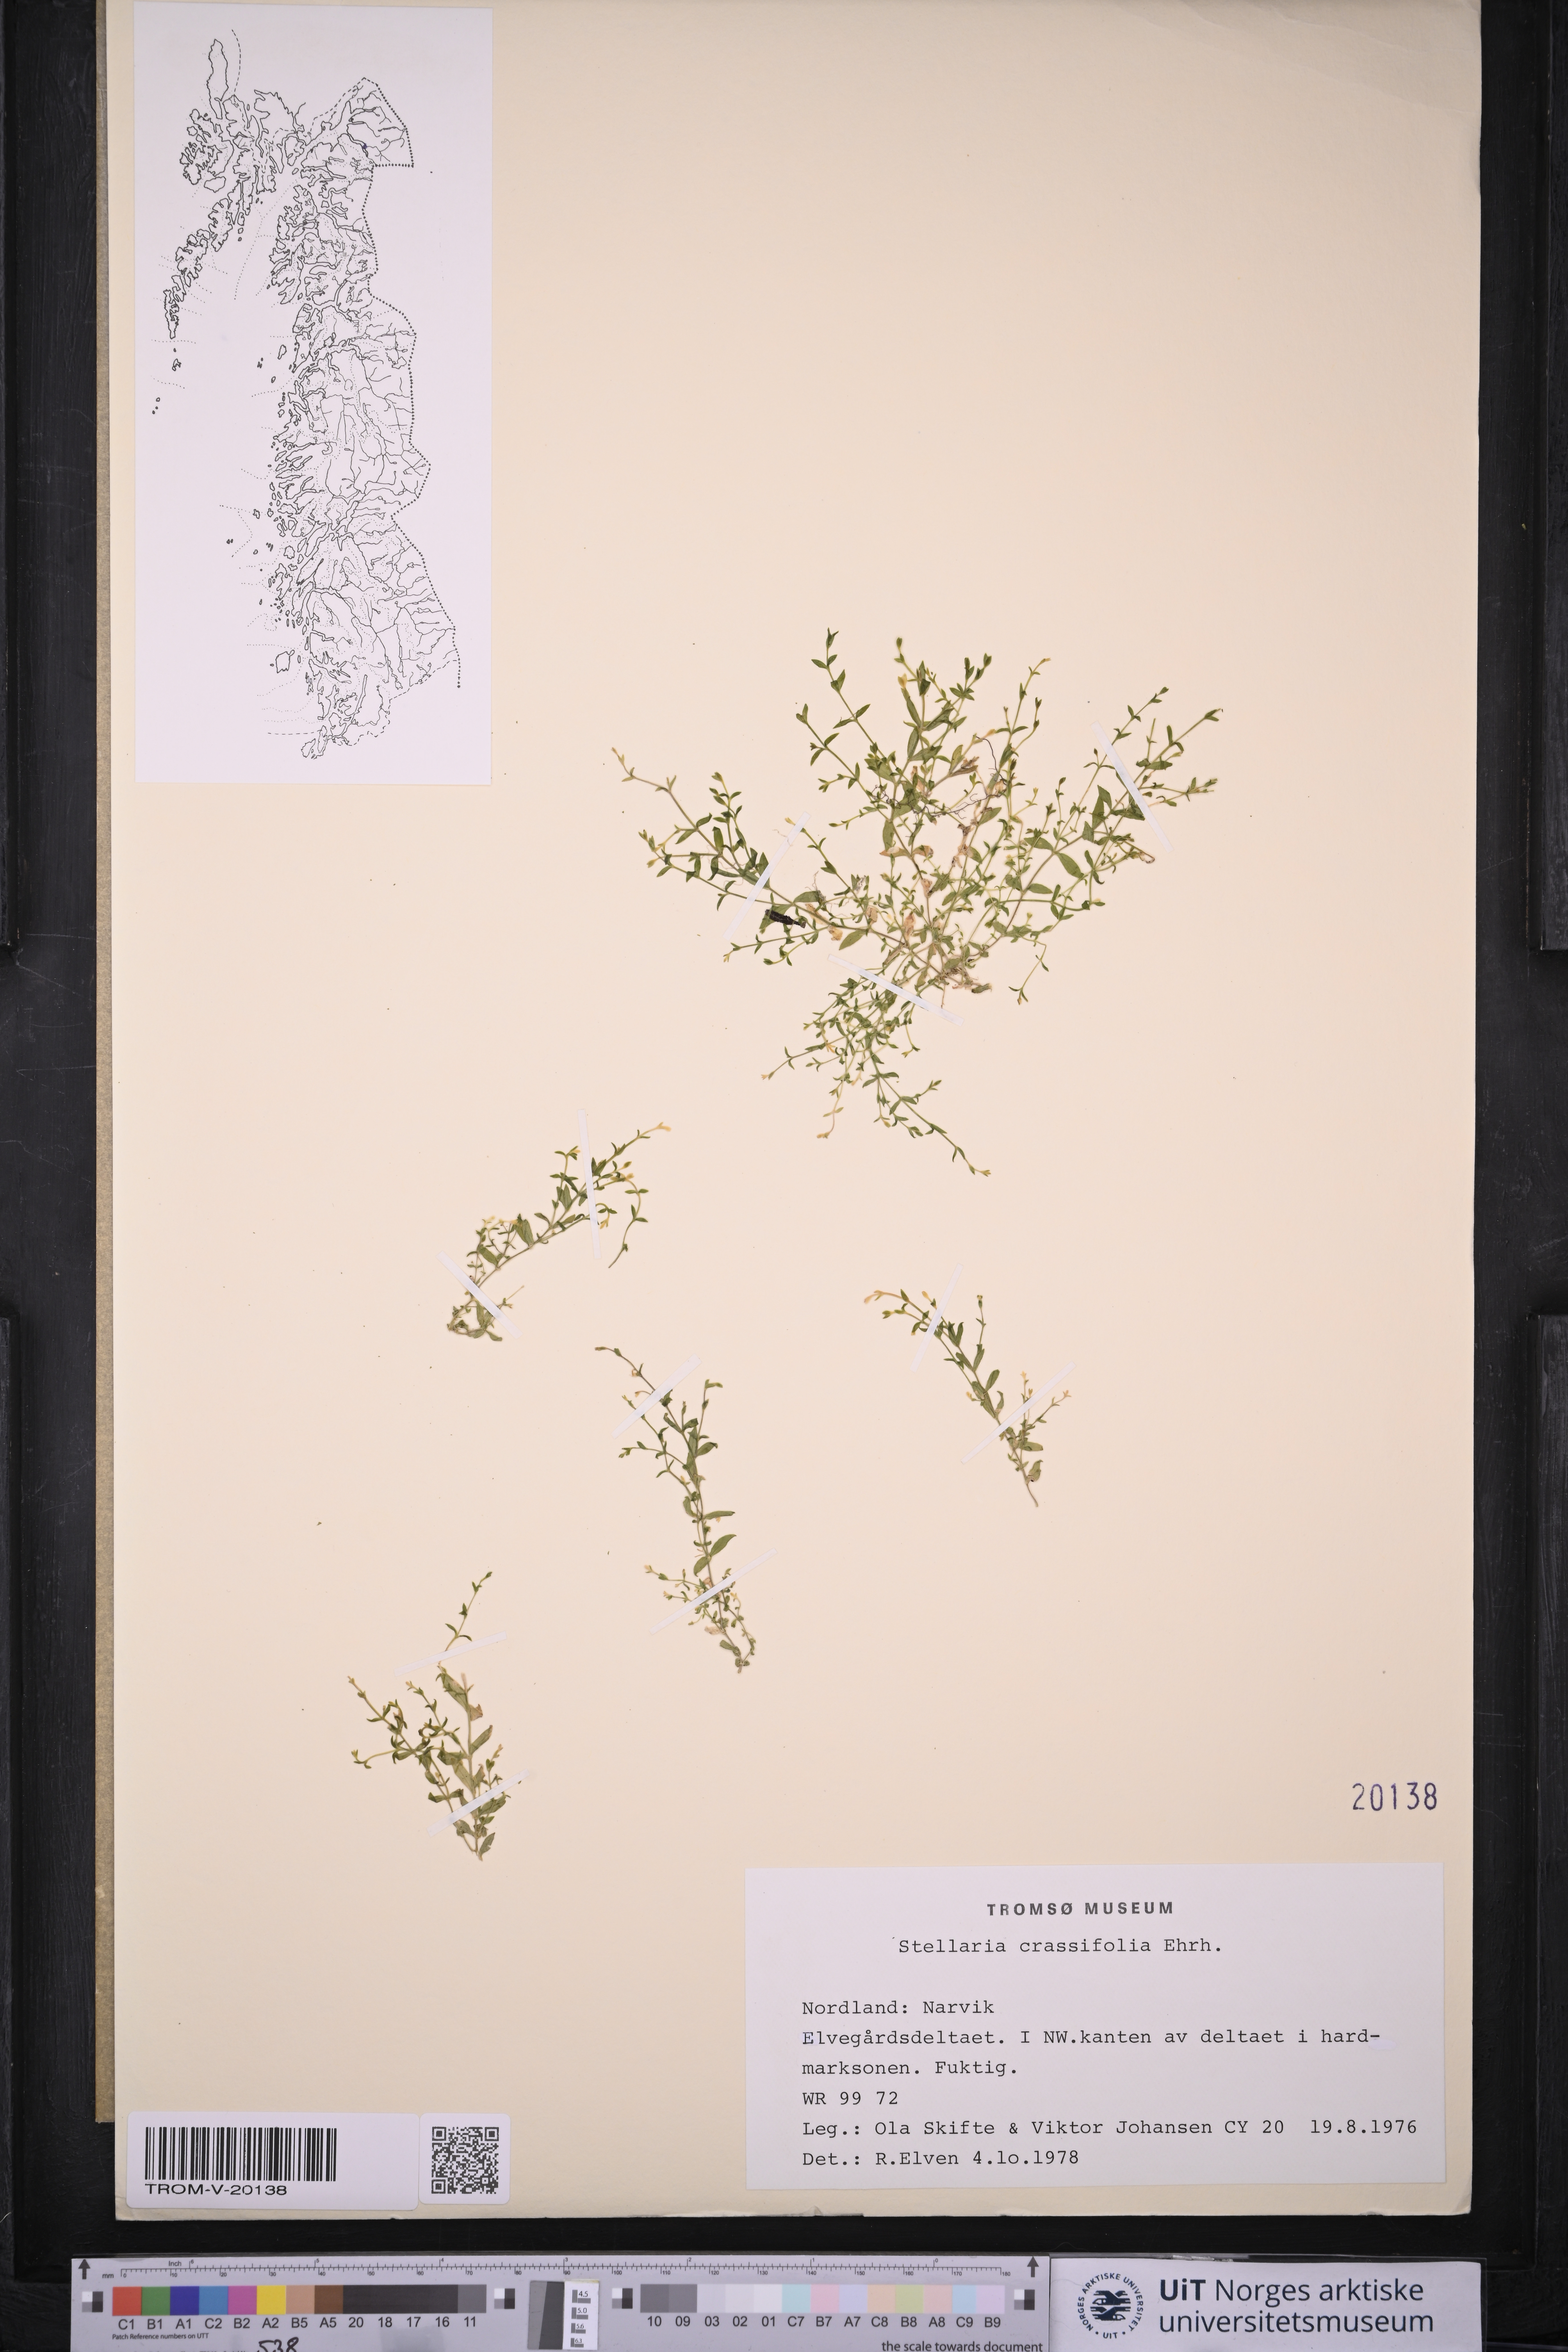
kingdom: Plantae
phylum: Tracheophyta
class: Magnoliopsida
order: Caryophyllales
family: Caryophyllaceae
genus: Stellaria
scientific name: Stellaria crassifolia
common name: Fleshy starwort
